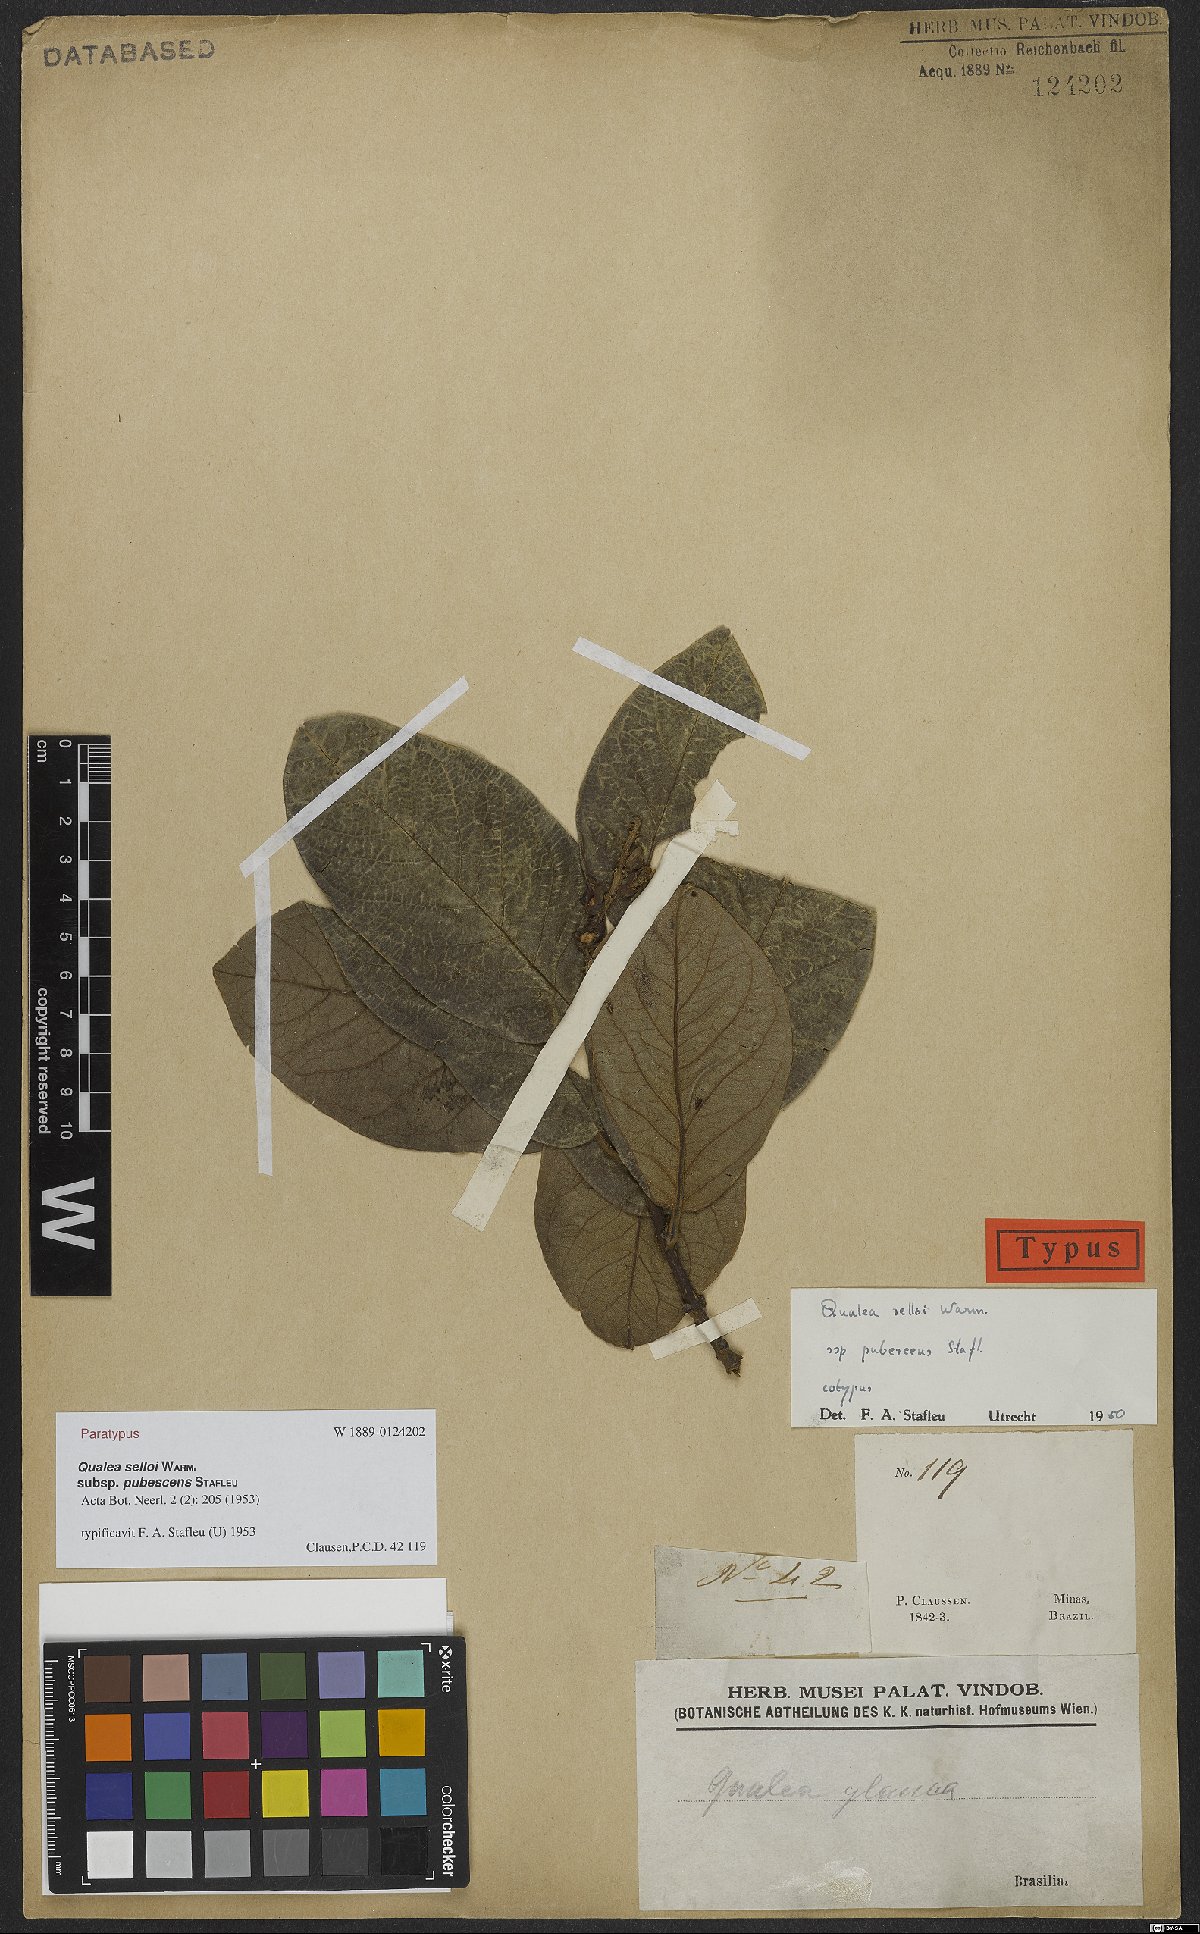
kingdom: Plantae
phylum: Tracheophyta
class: Magnoliopsida
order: Myrtales
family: Vochysiaceae
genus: Qualea
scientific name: Qualea selloi
